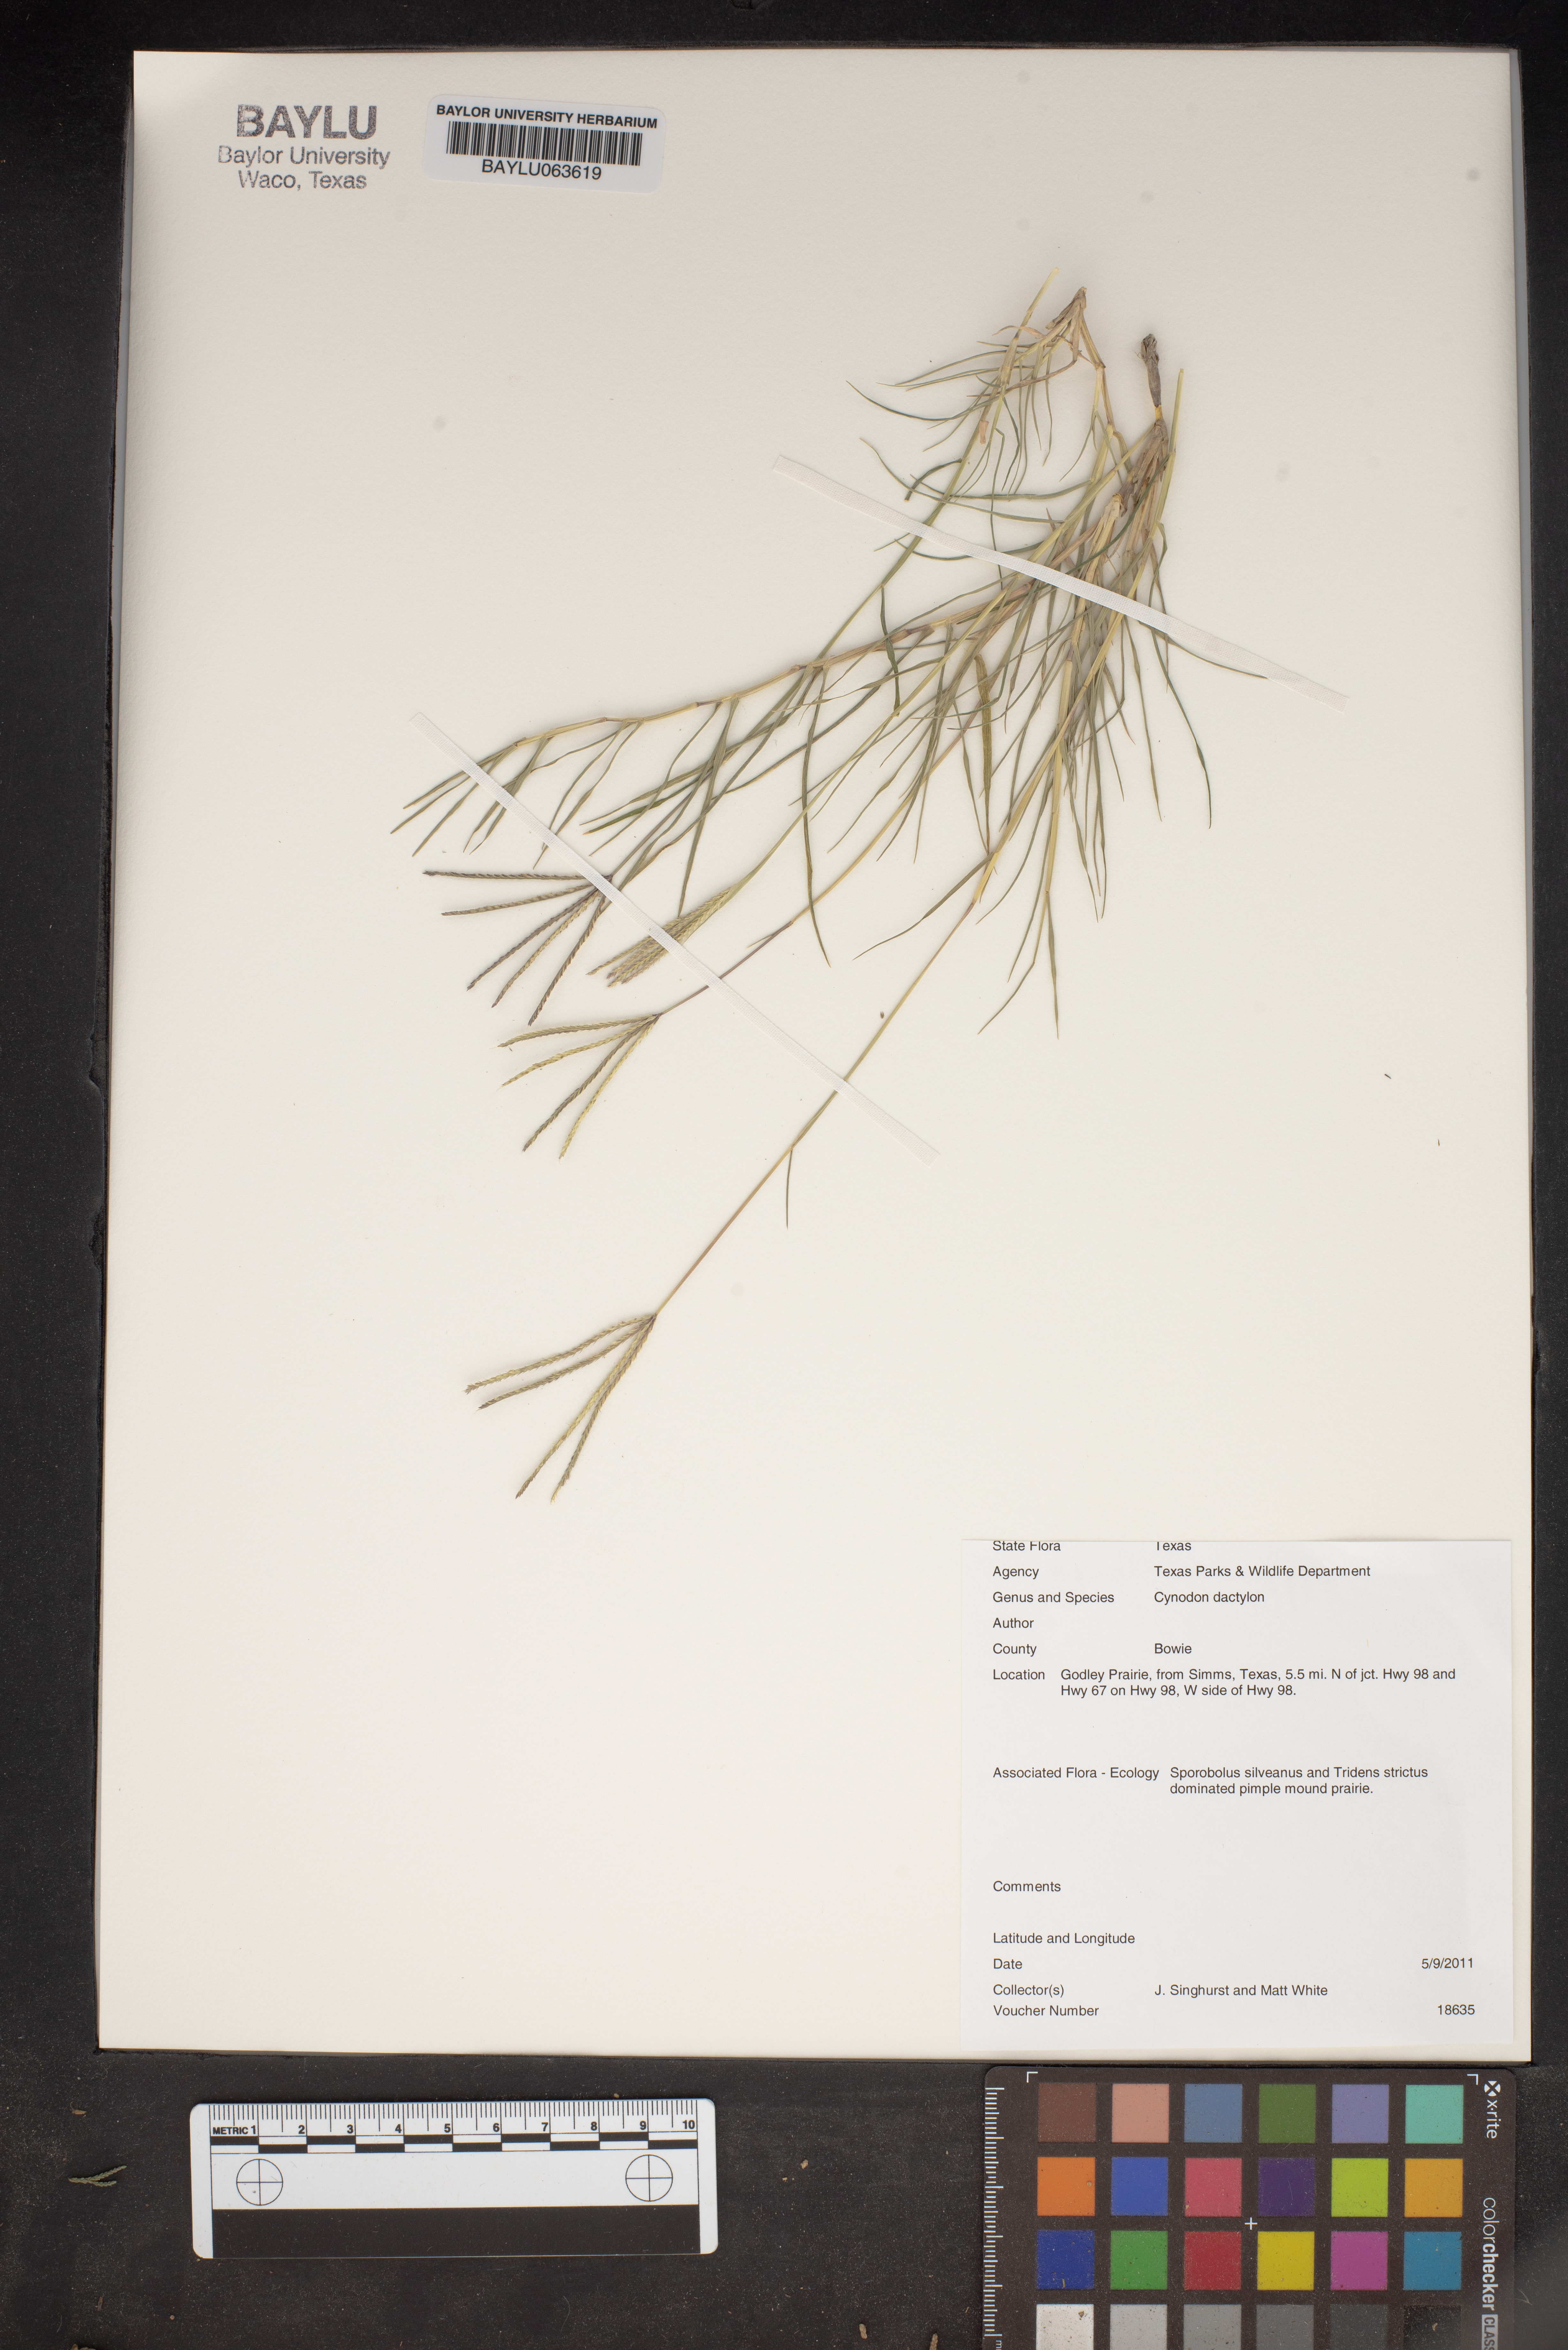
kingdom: Plantae
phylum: Tracheophyta
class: Liliopsida
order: Poales
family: Poaceae
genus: Cynodon
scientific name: Cynodon dactylon
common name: Bermuda grass
